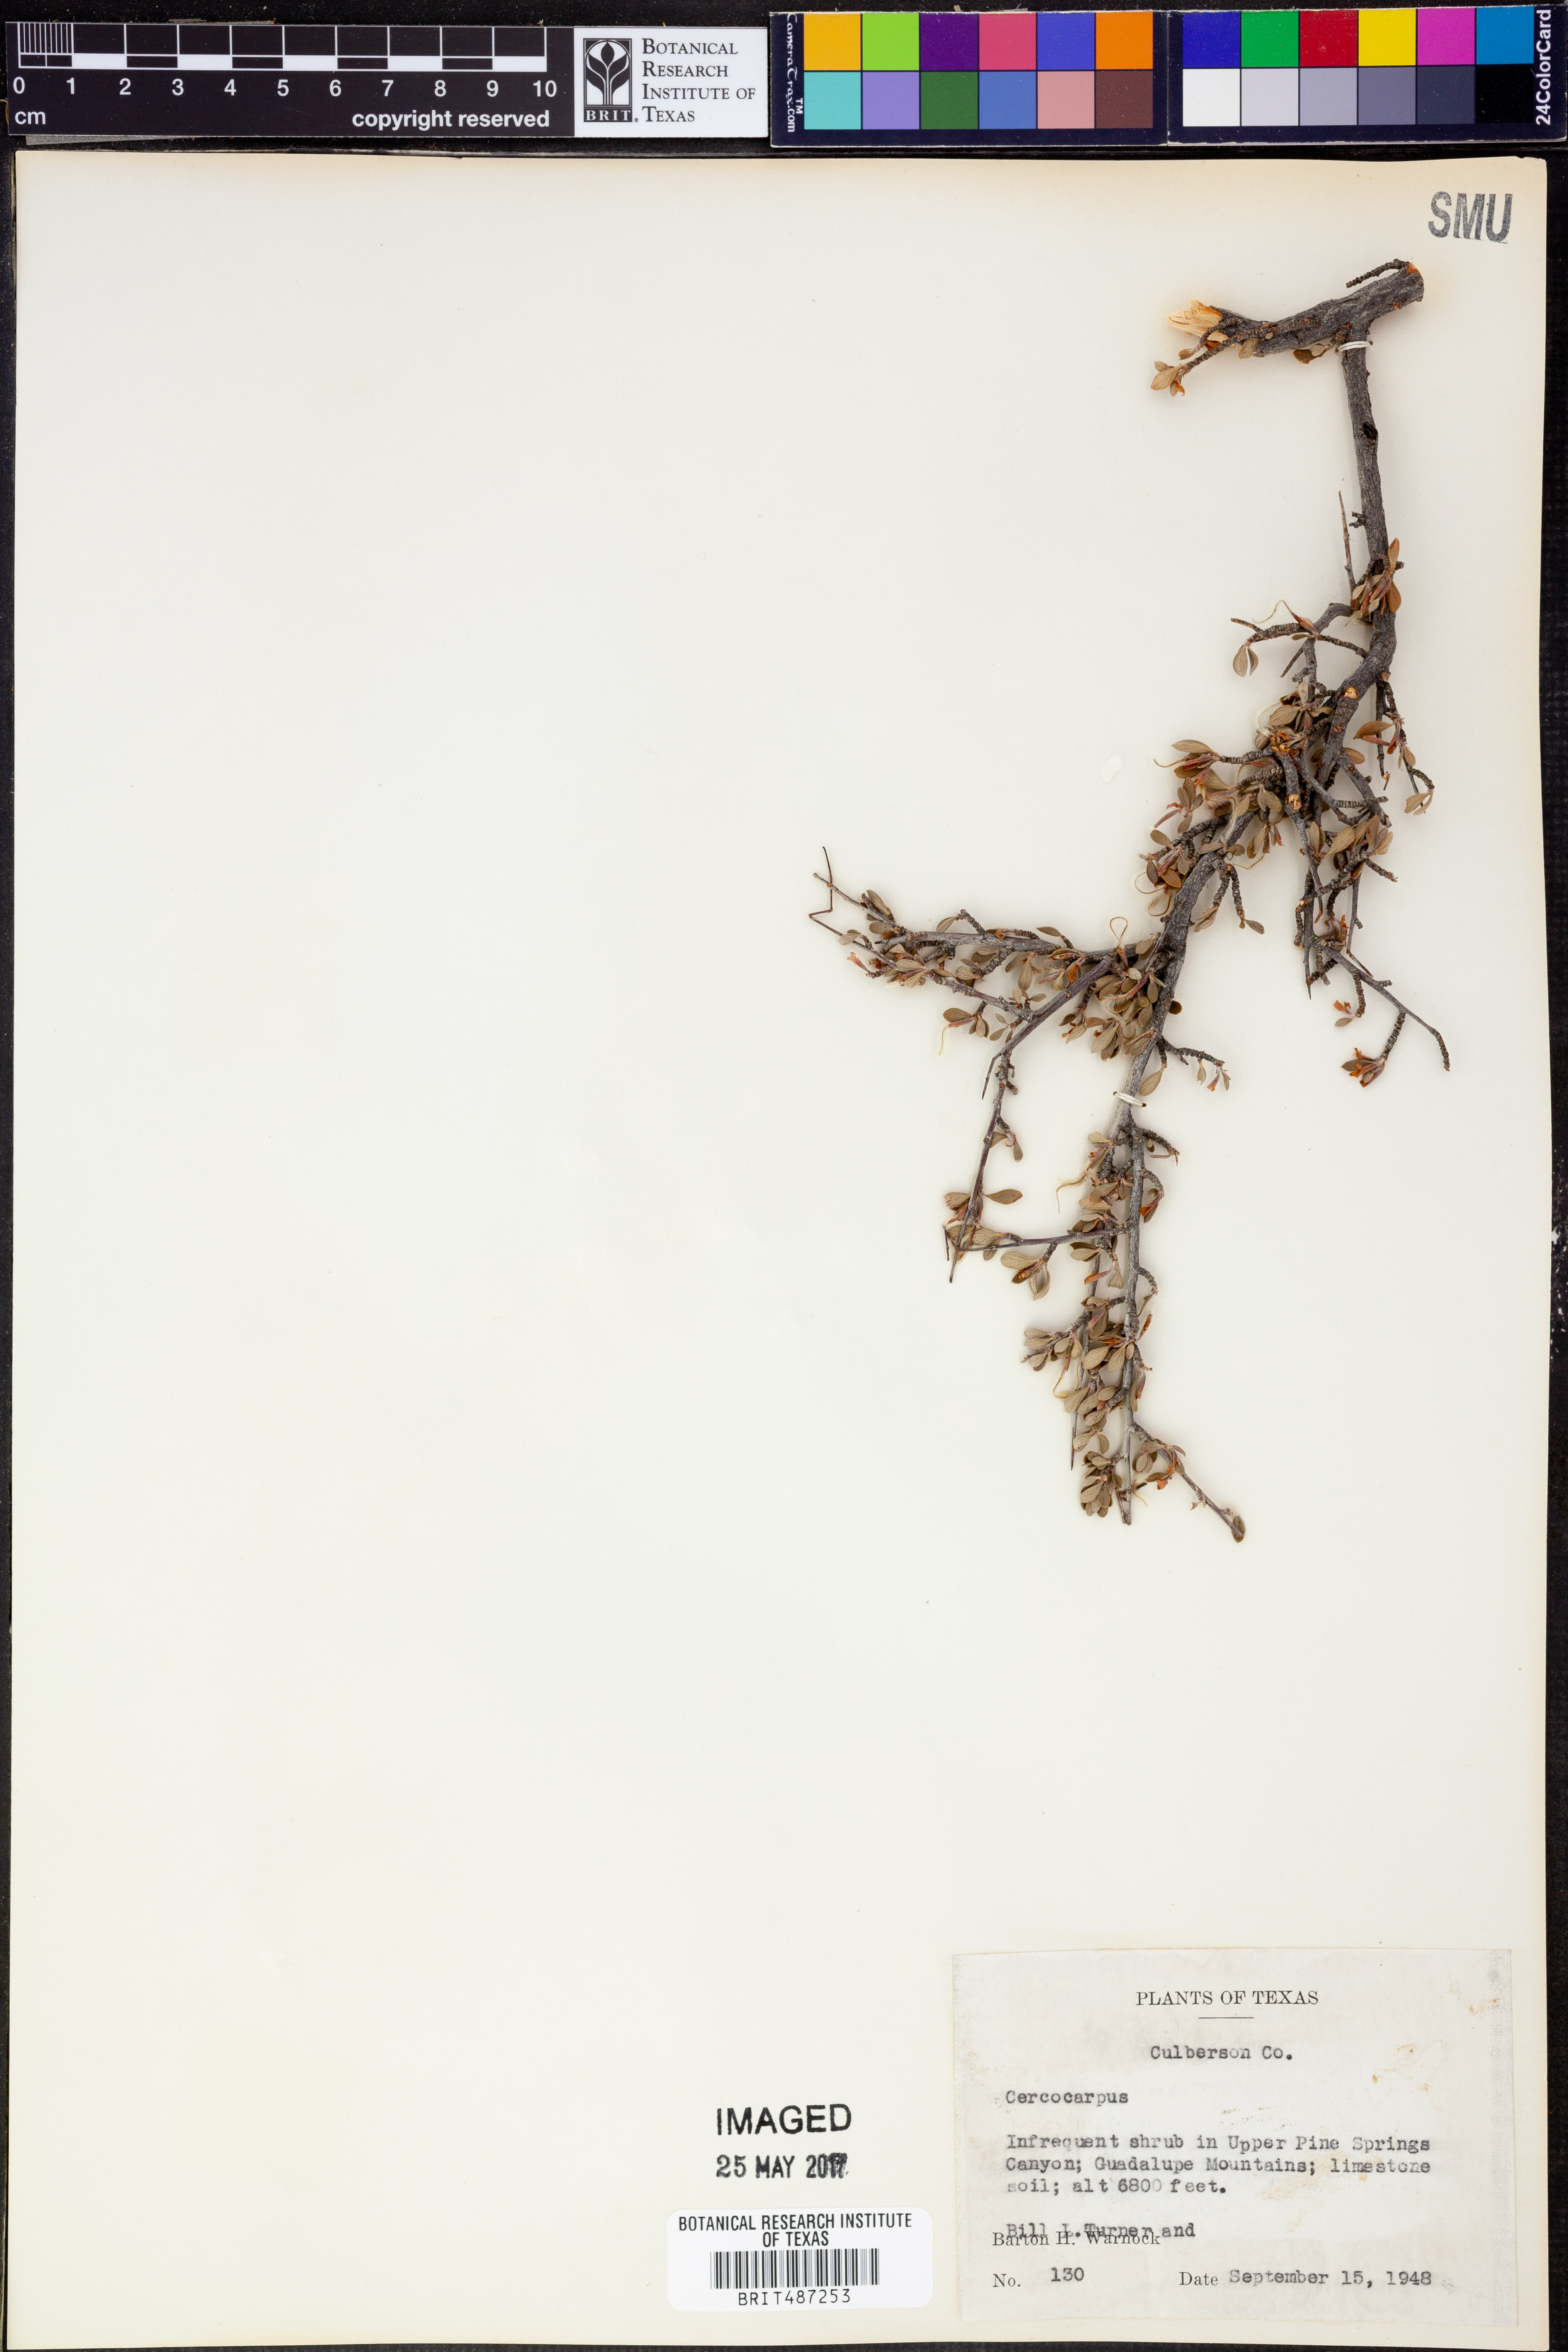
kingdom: Plantae
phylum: Tracheophyta
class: Magnoliopsida
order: Rosales
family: Rosaceae
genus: Cercocarpus
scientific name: Cercocarpus
